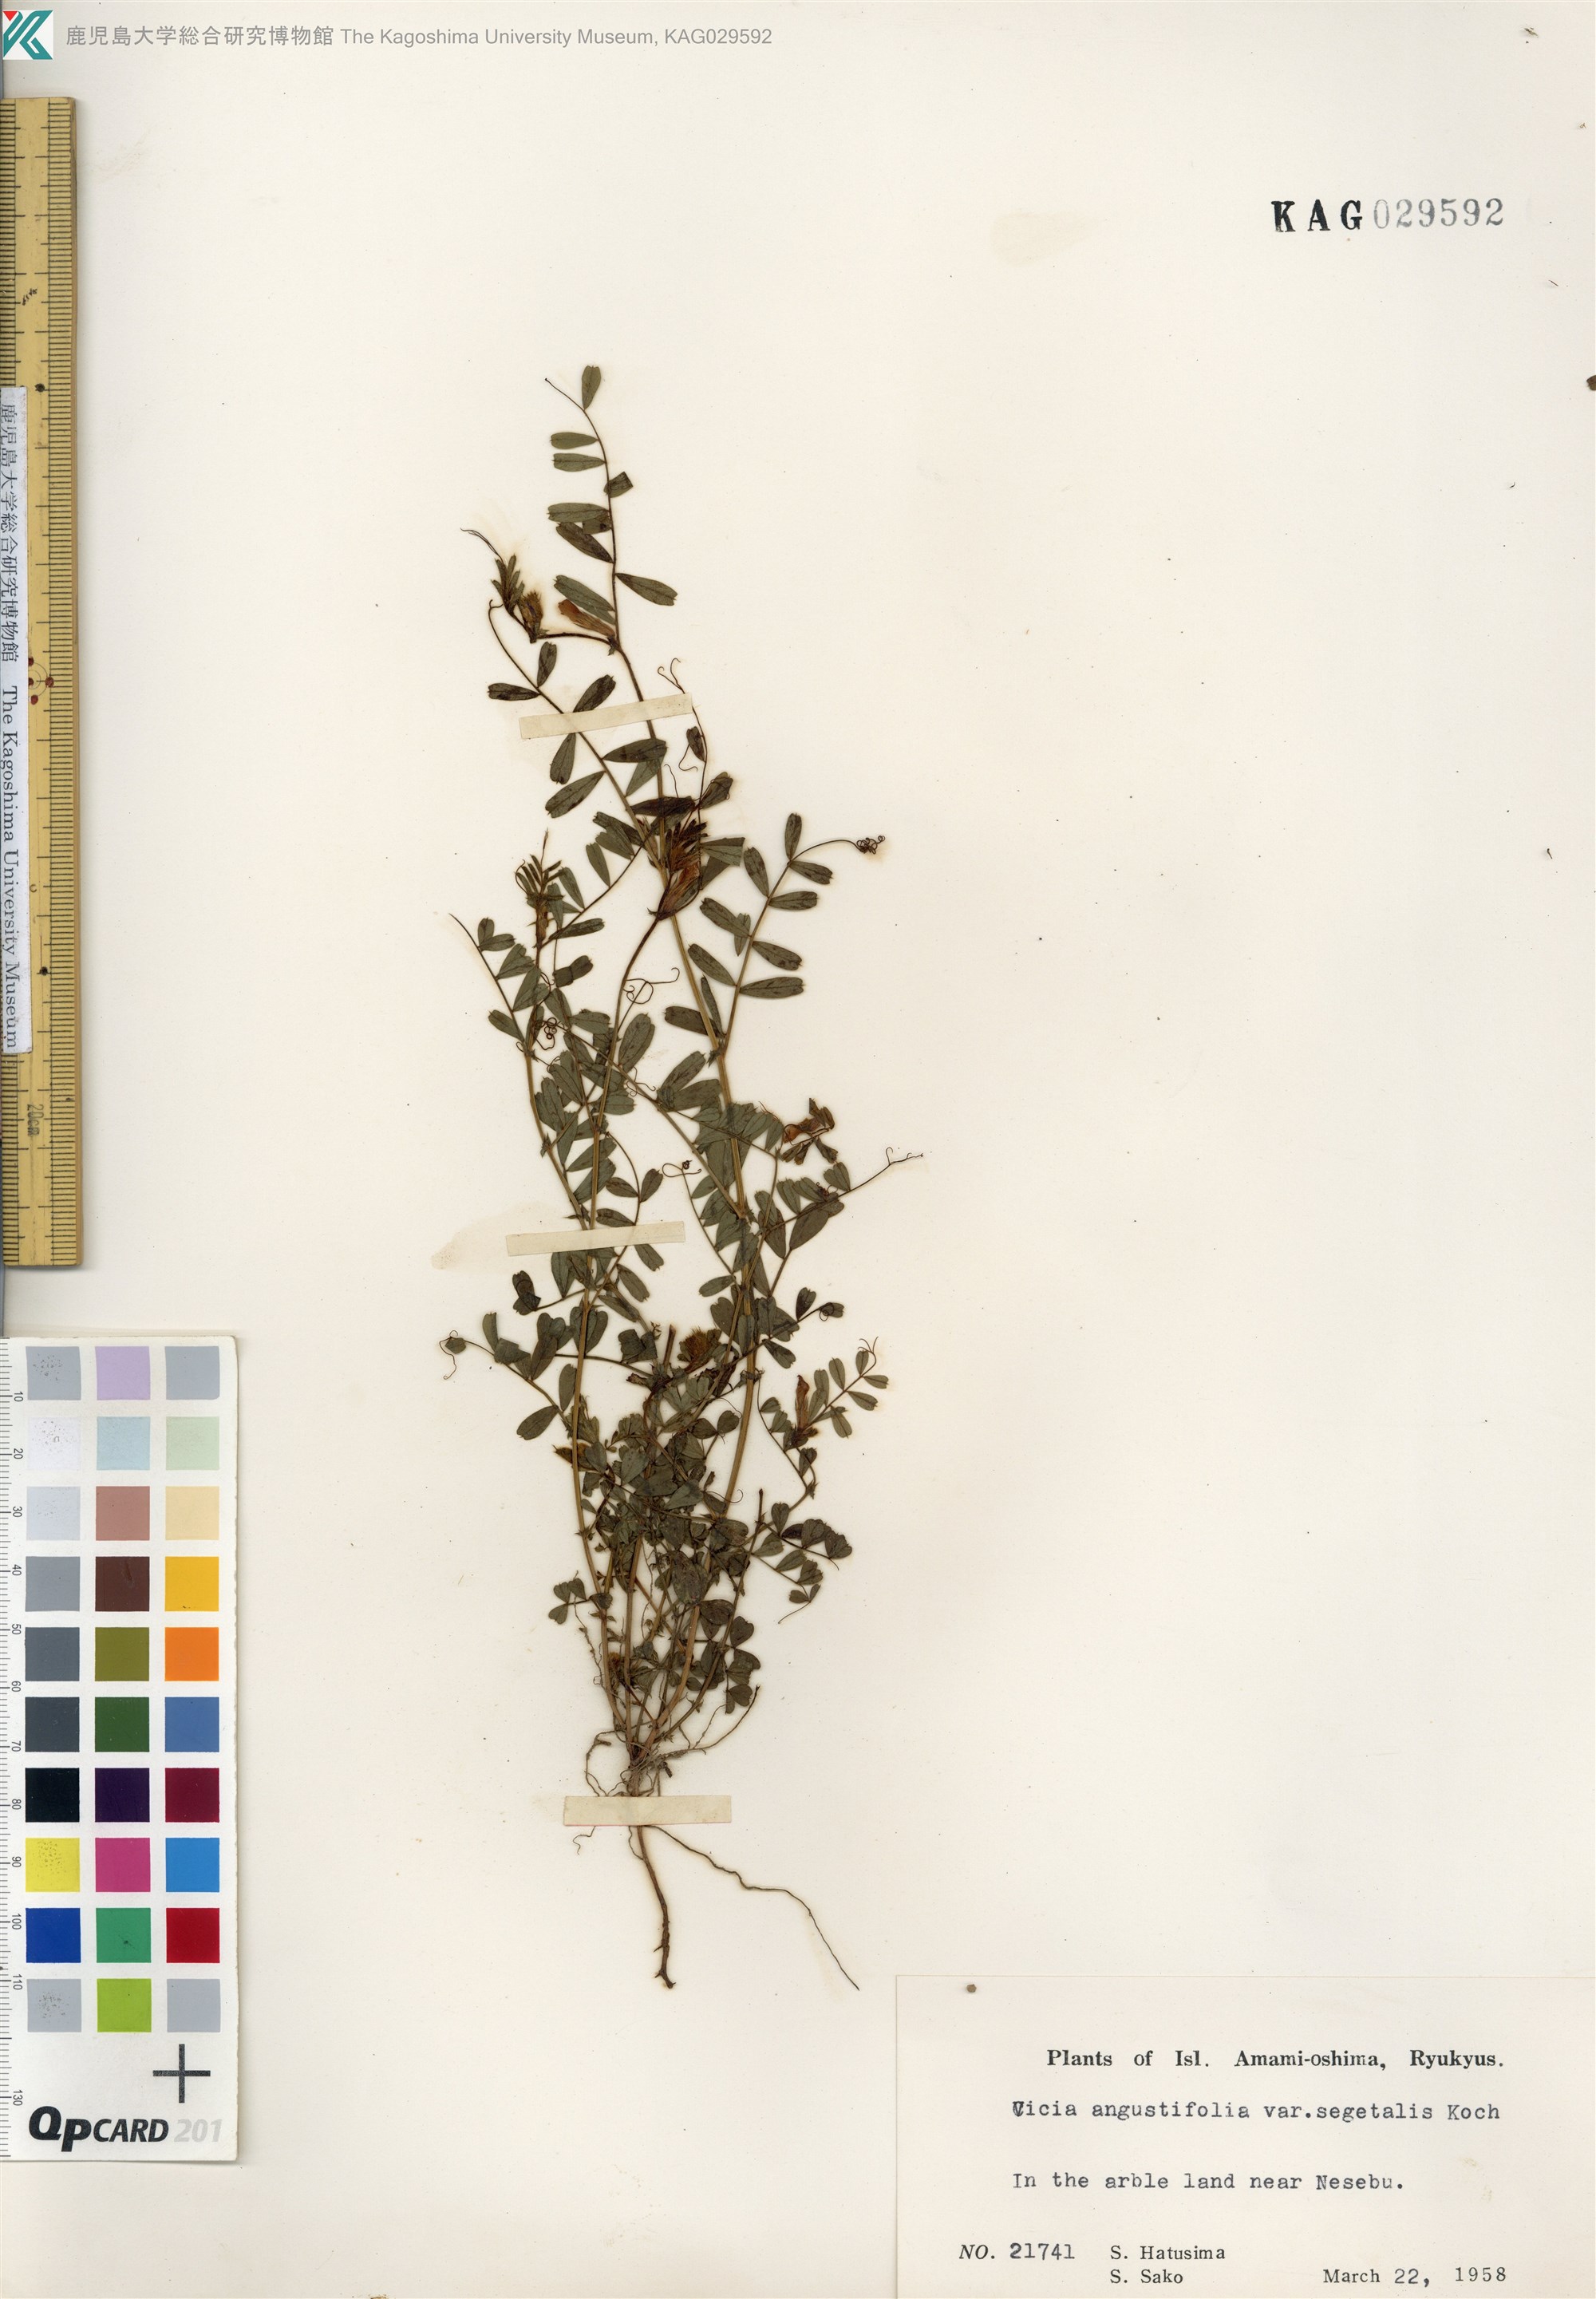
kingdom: Plantae
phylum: Tracheophyta
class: Magnoliopsida
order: Fabales
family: Fabaceae
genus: Vicia
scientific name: Vicia sativa
